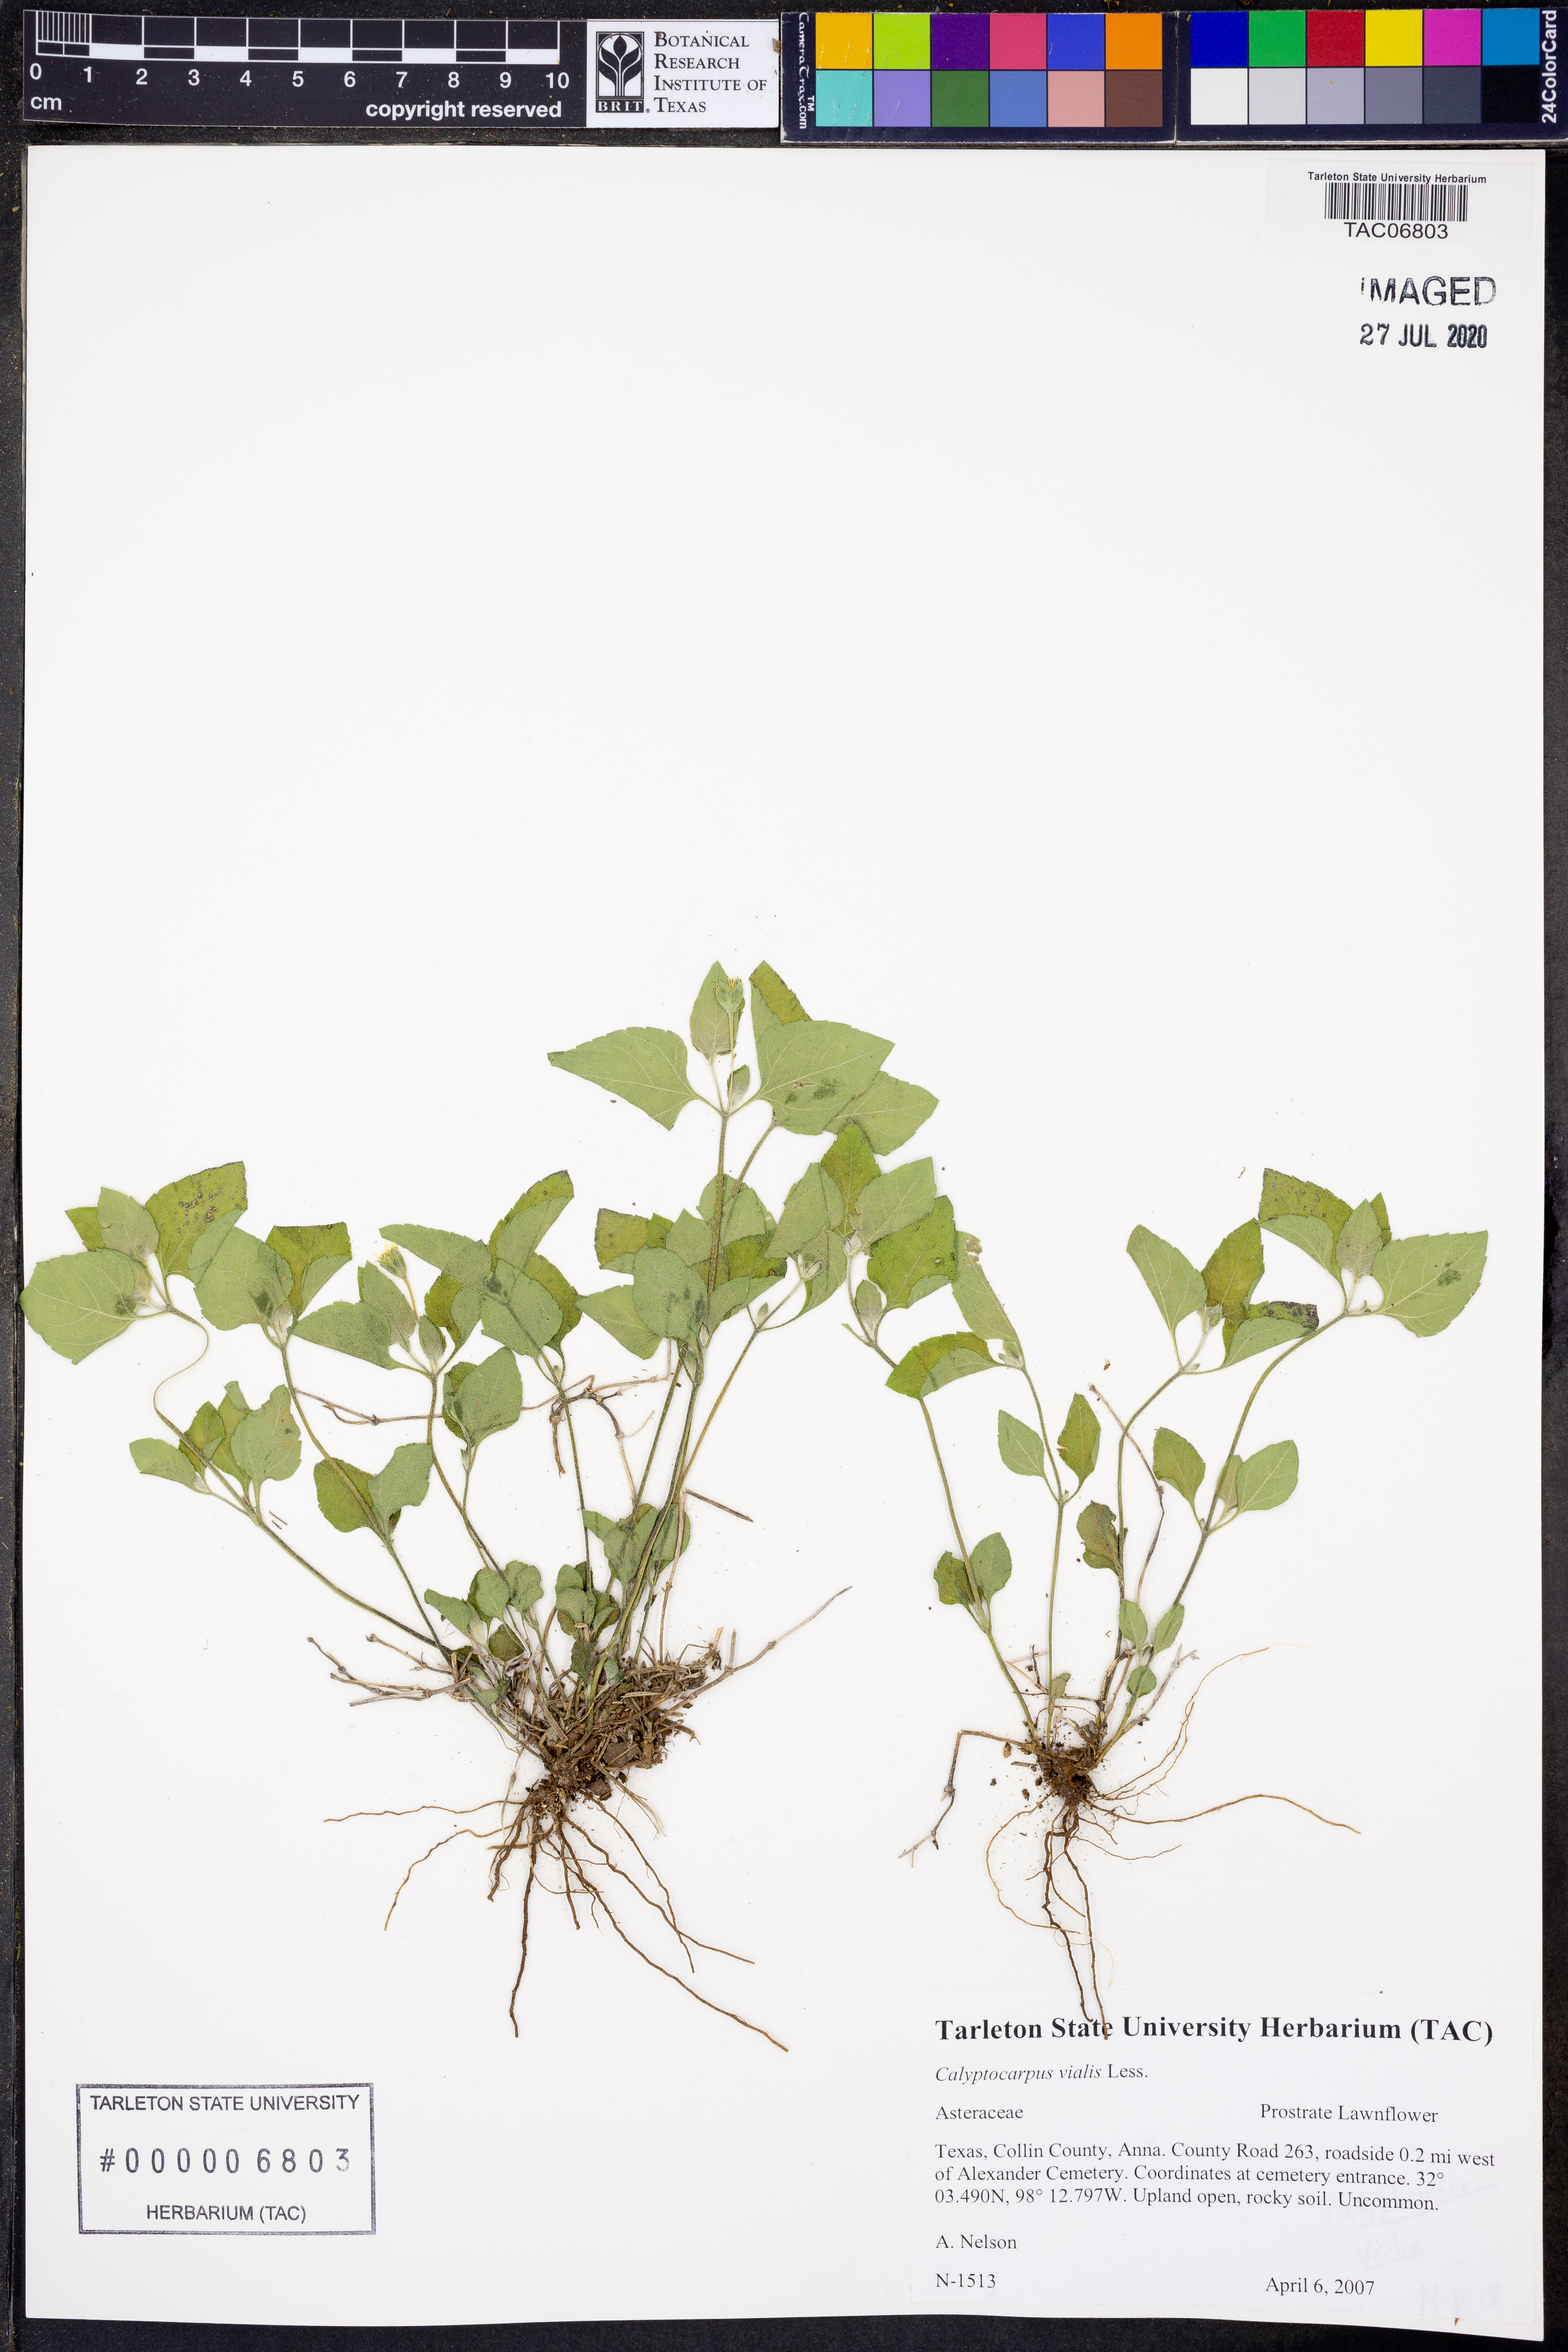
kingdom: Plantae
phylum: Tracheophyta
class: Magnoliopsida
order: Asterales
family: Asteraceae
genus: Calyptocarpus
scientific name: Calyptocarpus vialis
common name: Straggler daisy
